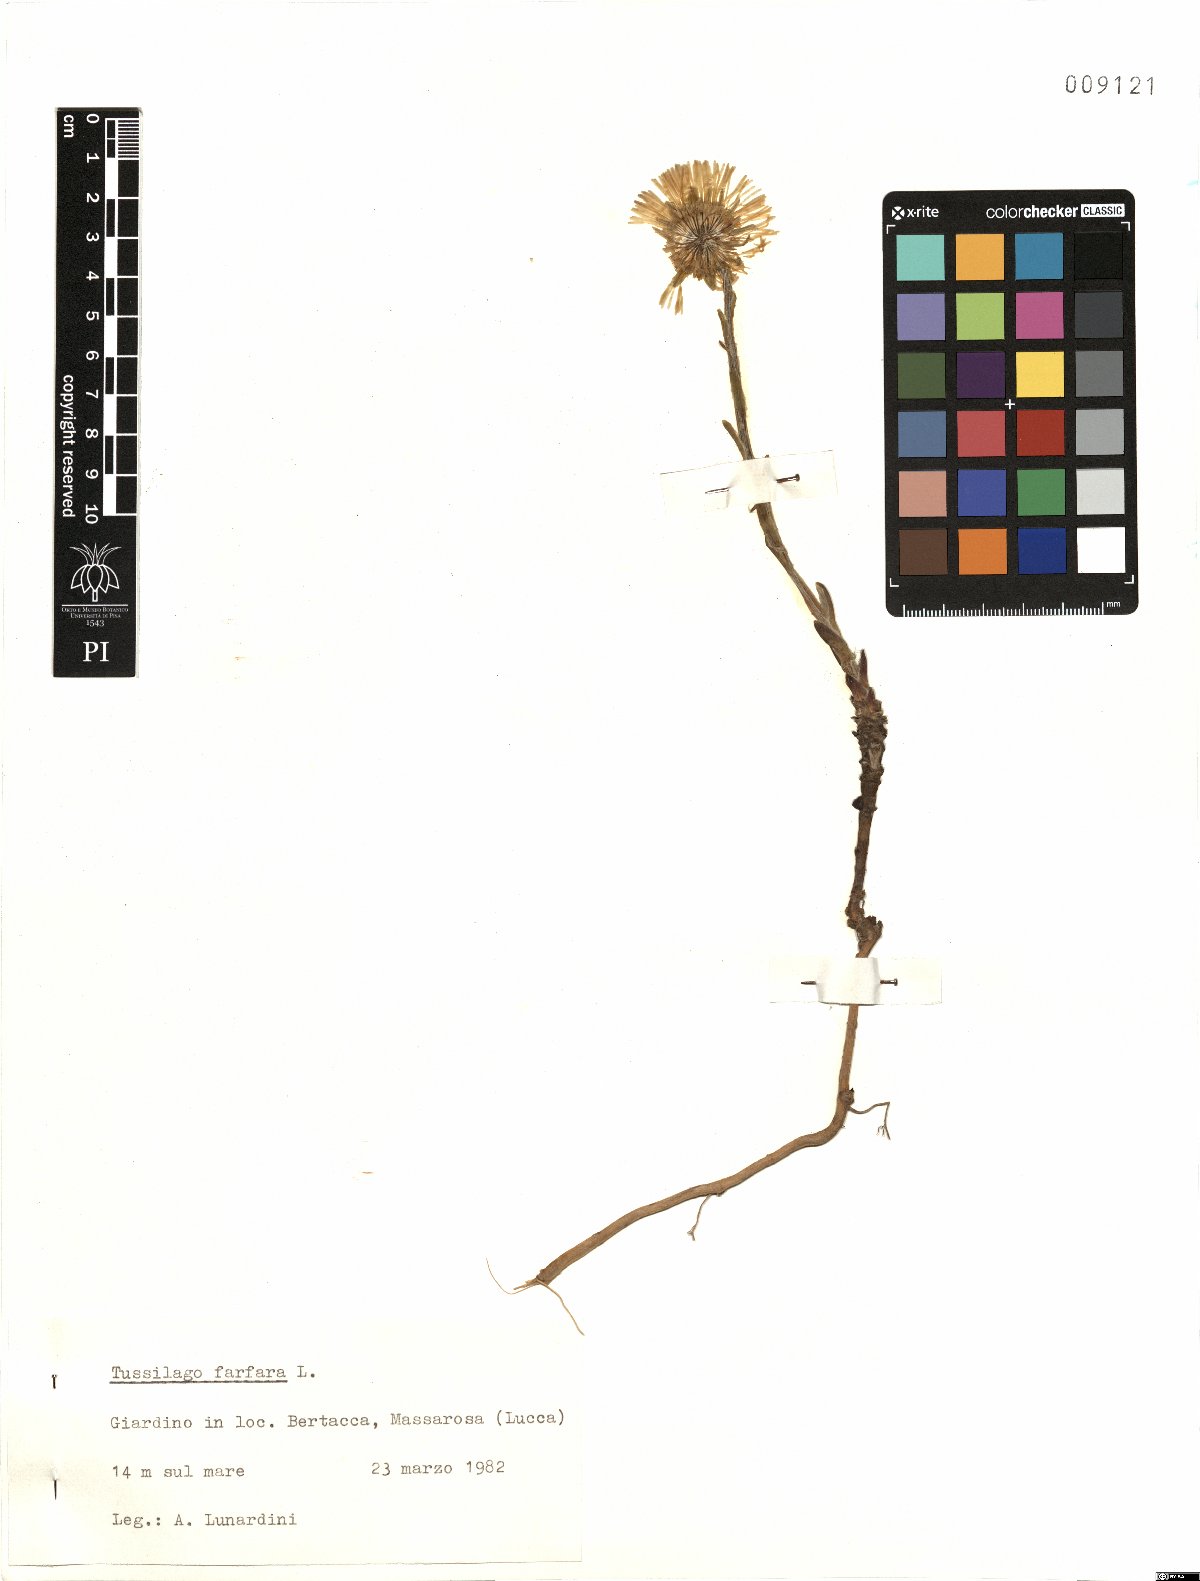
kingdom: Plantae
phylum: Tracheophyta
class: Magnoliopsida
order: Asterales
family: Asteraceae
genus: Tussilago
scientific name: Tussilago farfara
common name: Coltsfoot
